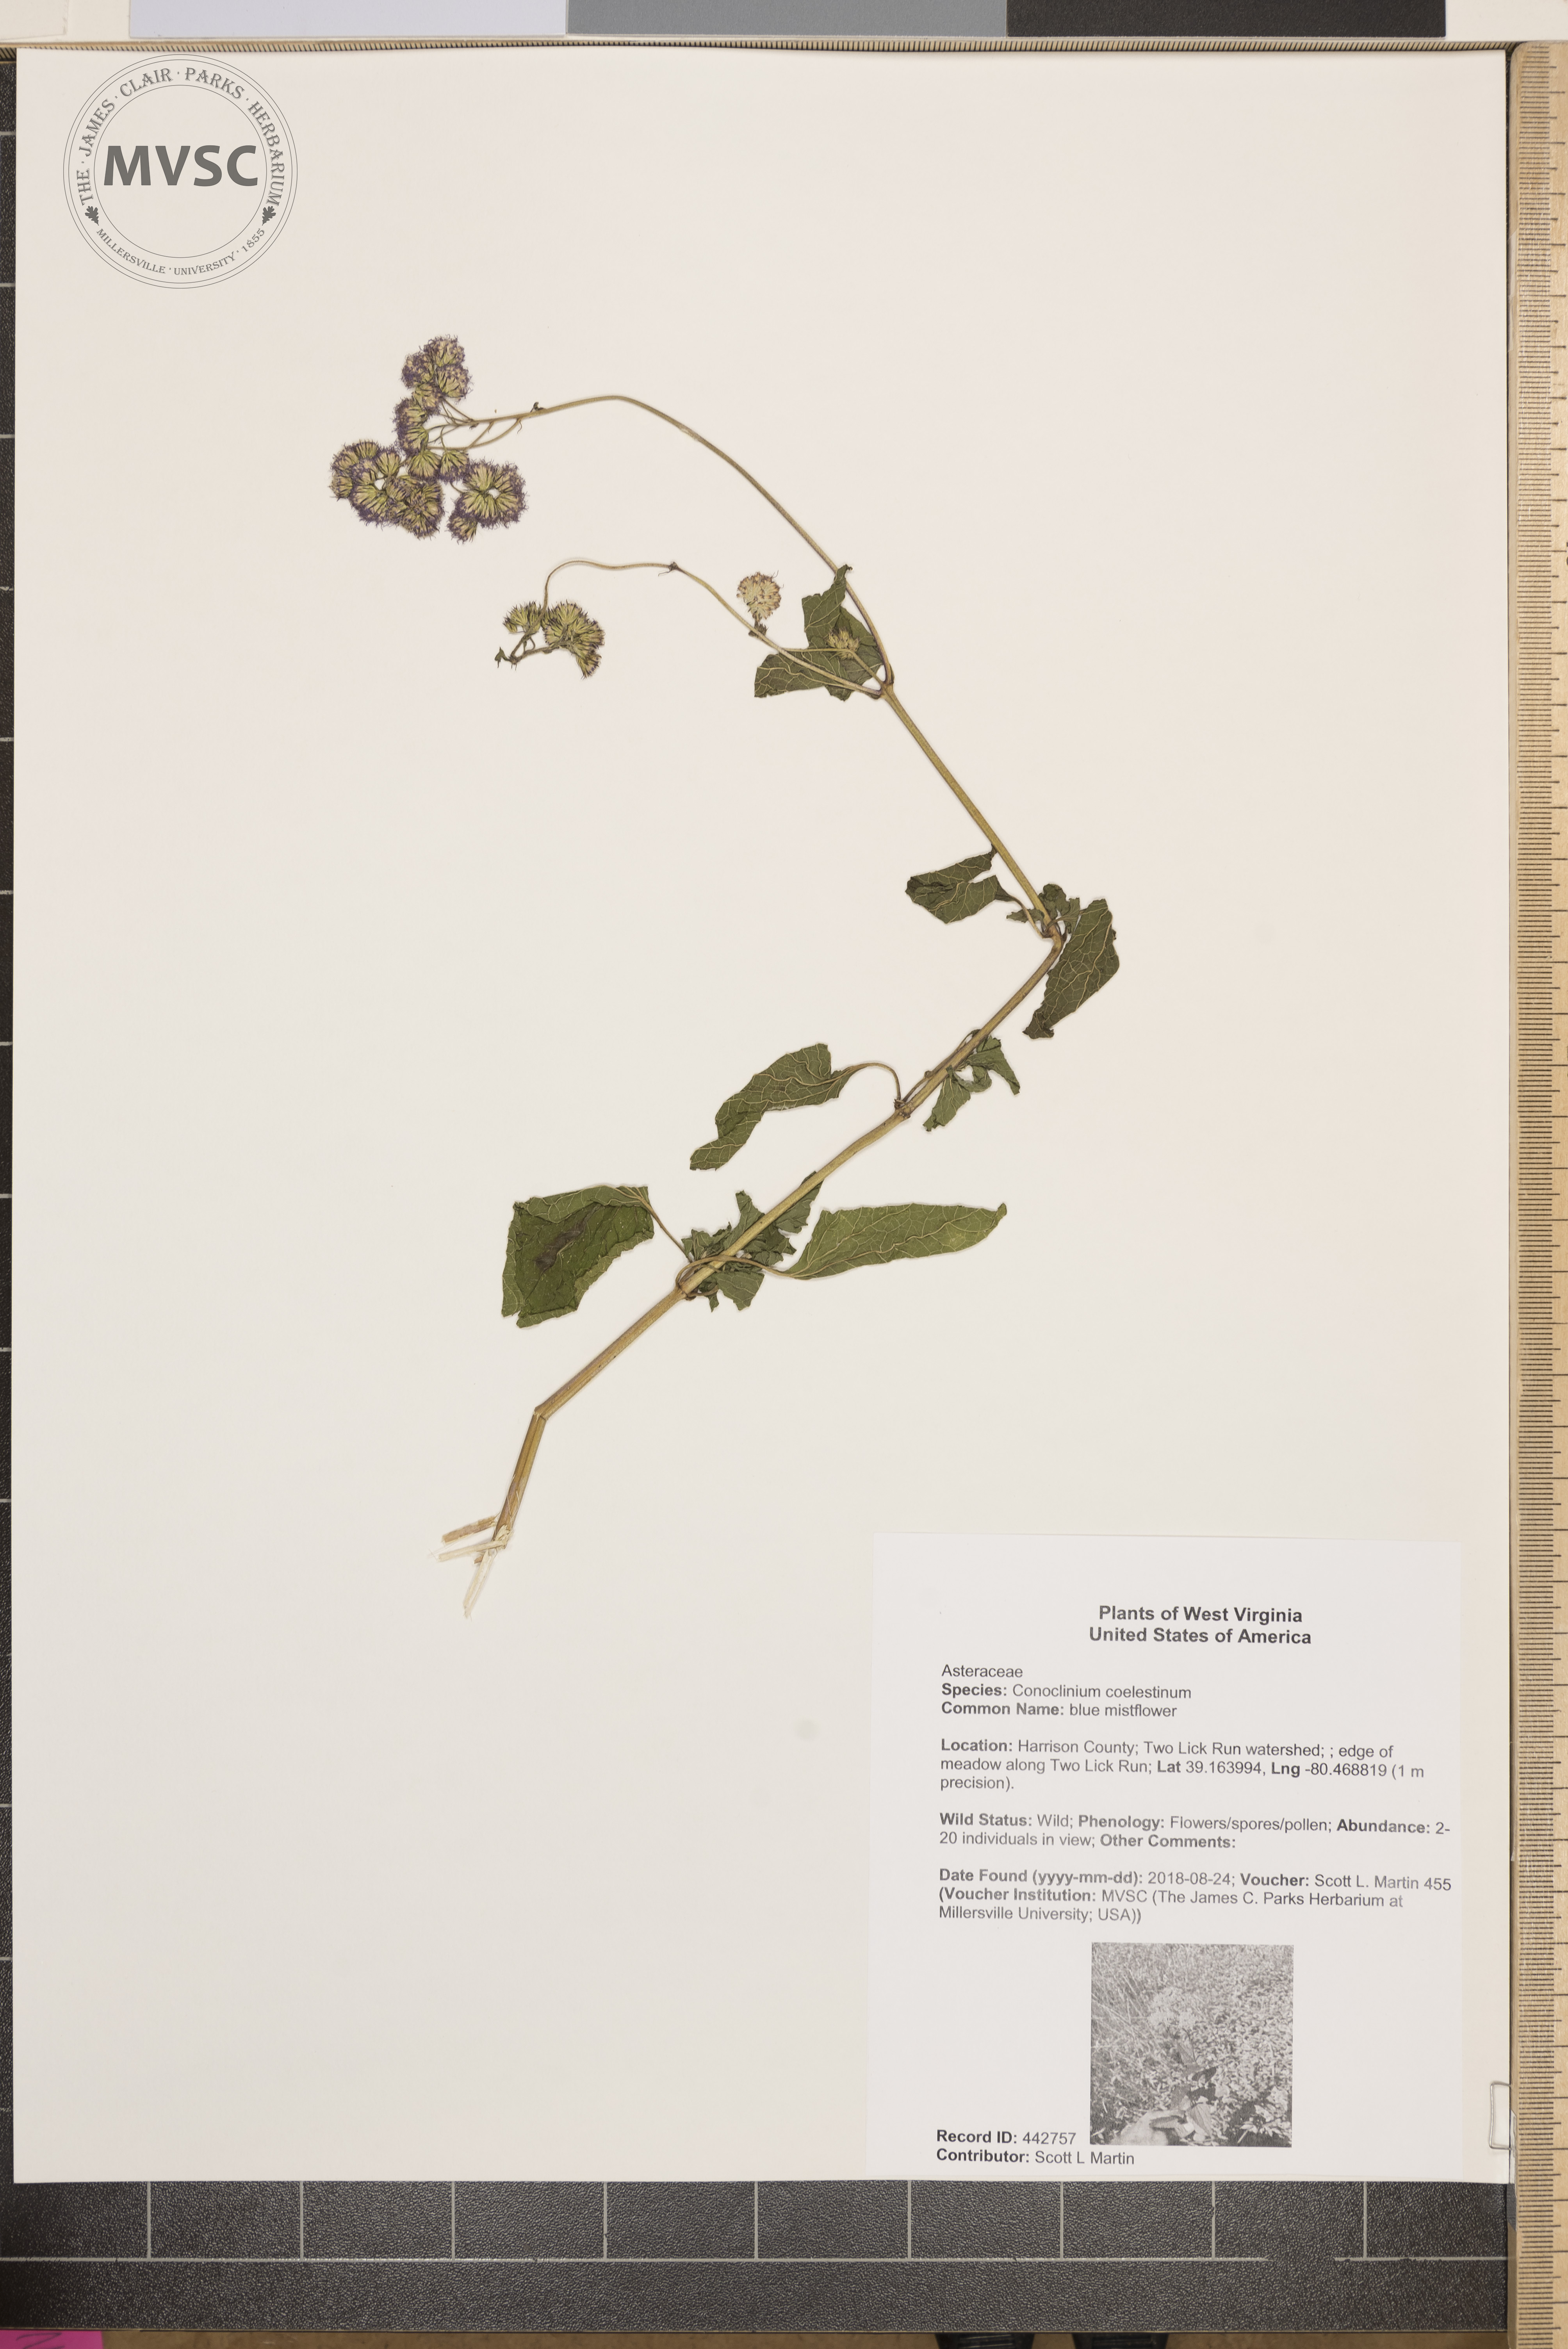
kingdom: Plantae
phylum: Tracheophyta
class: Magnoliopsida
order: Asterales
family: Asteraceae
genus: Conoclinium
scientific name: Conoclinium coelestinum
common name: blue mistflower
